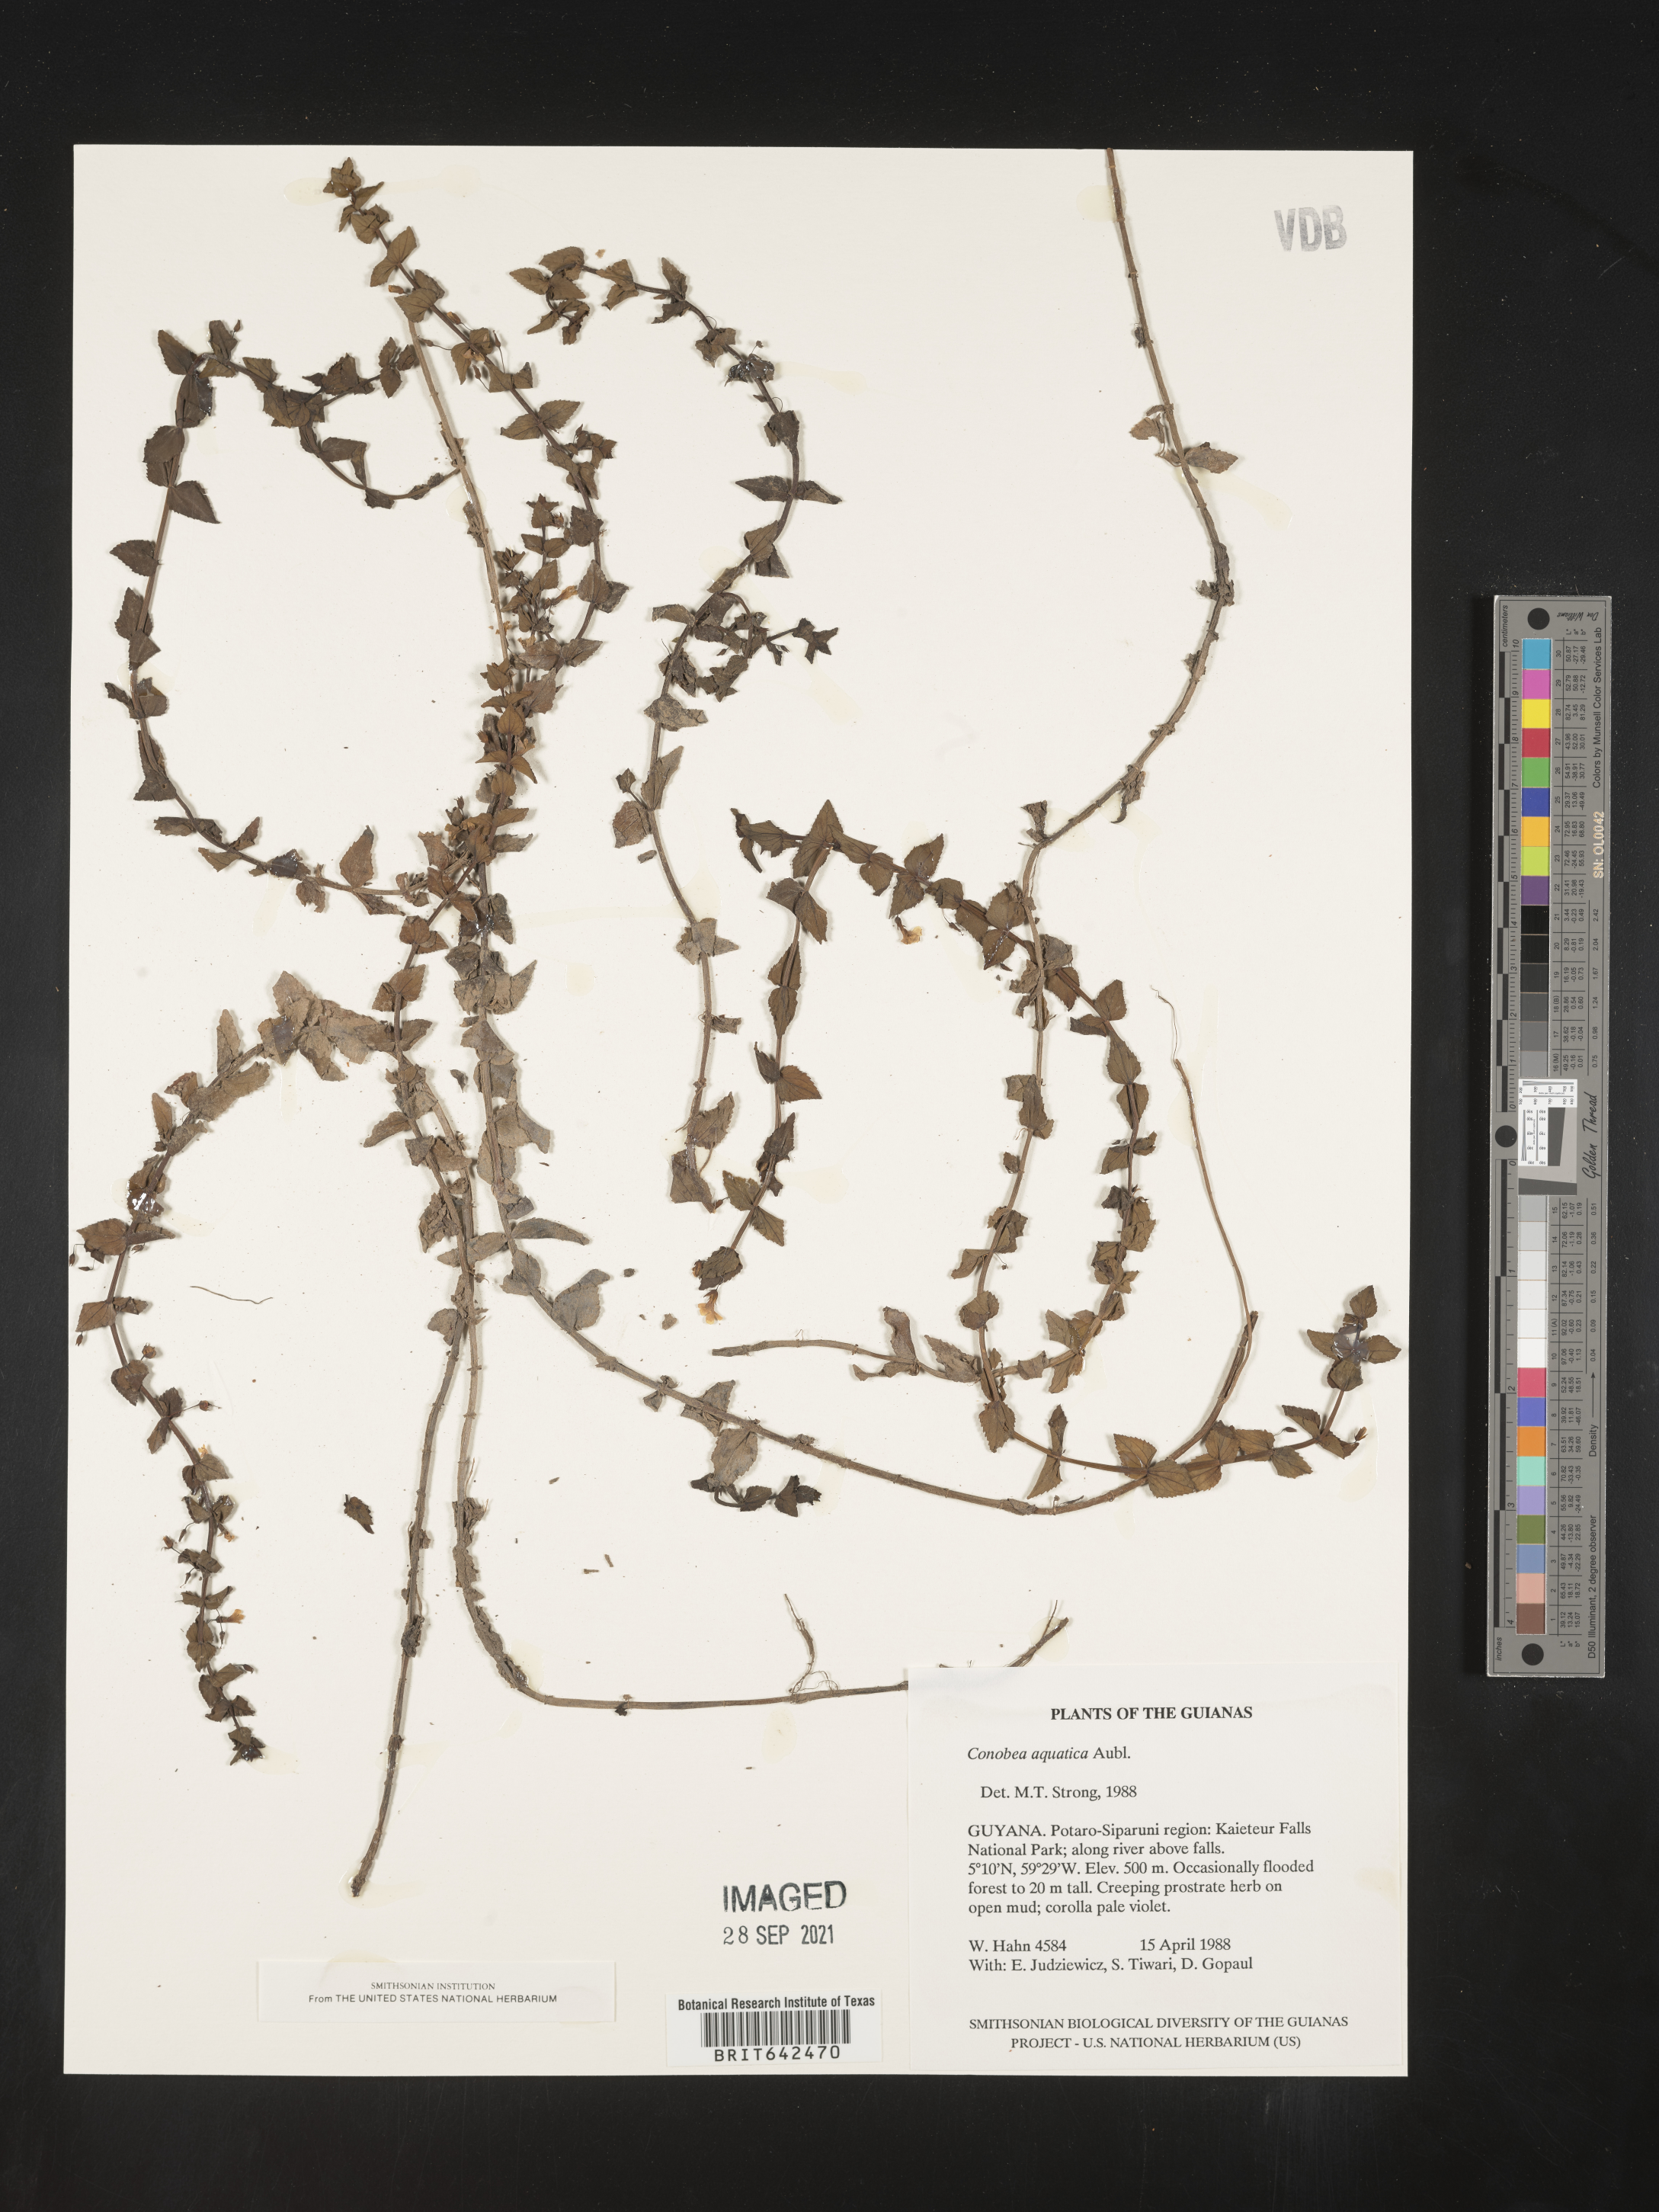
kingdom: Plantae
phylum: Tracheophyta
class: Magnoliopsida
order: Lamiales
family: Plantaginaceae
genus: Conobea
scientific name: Conobea
